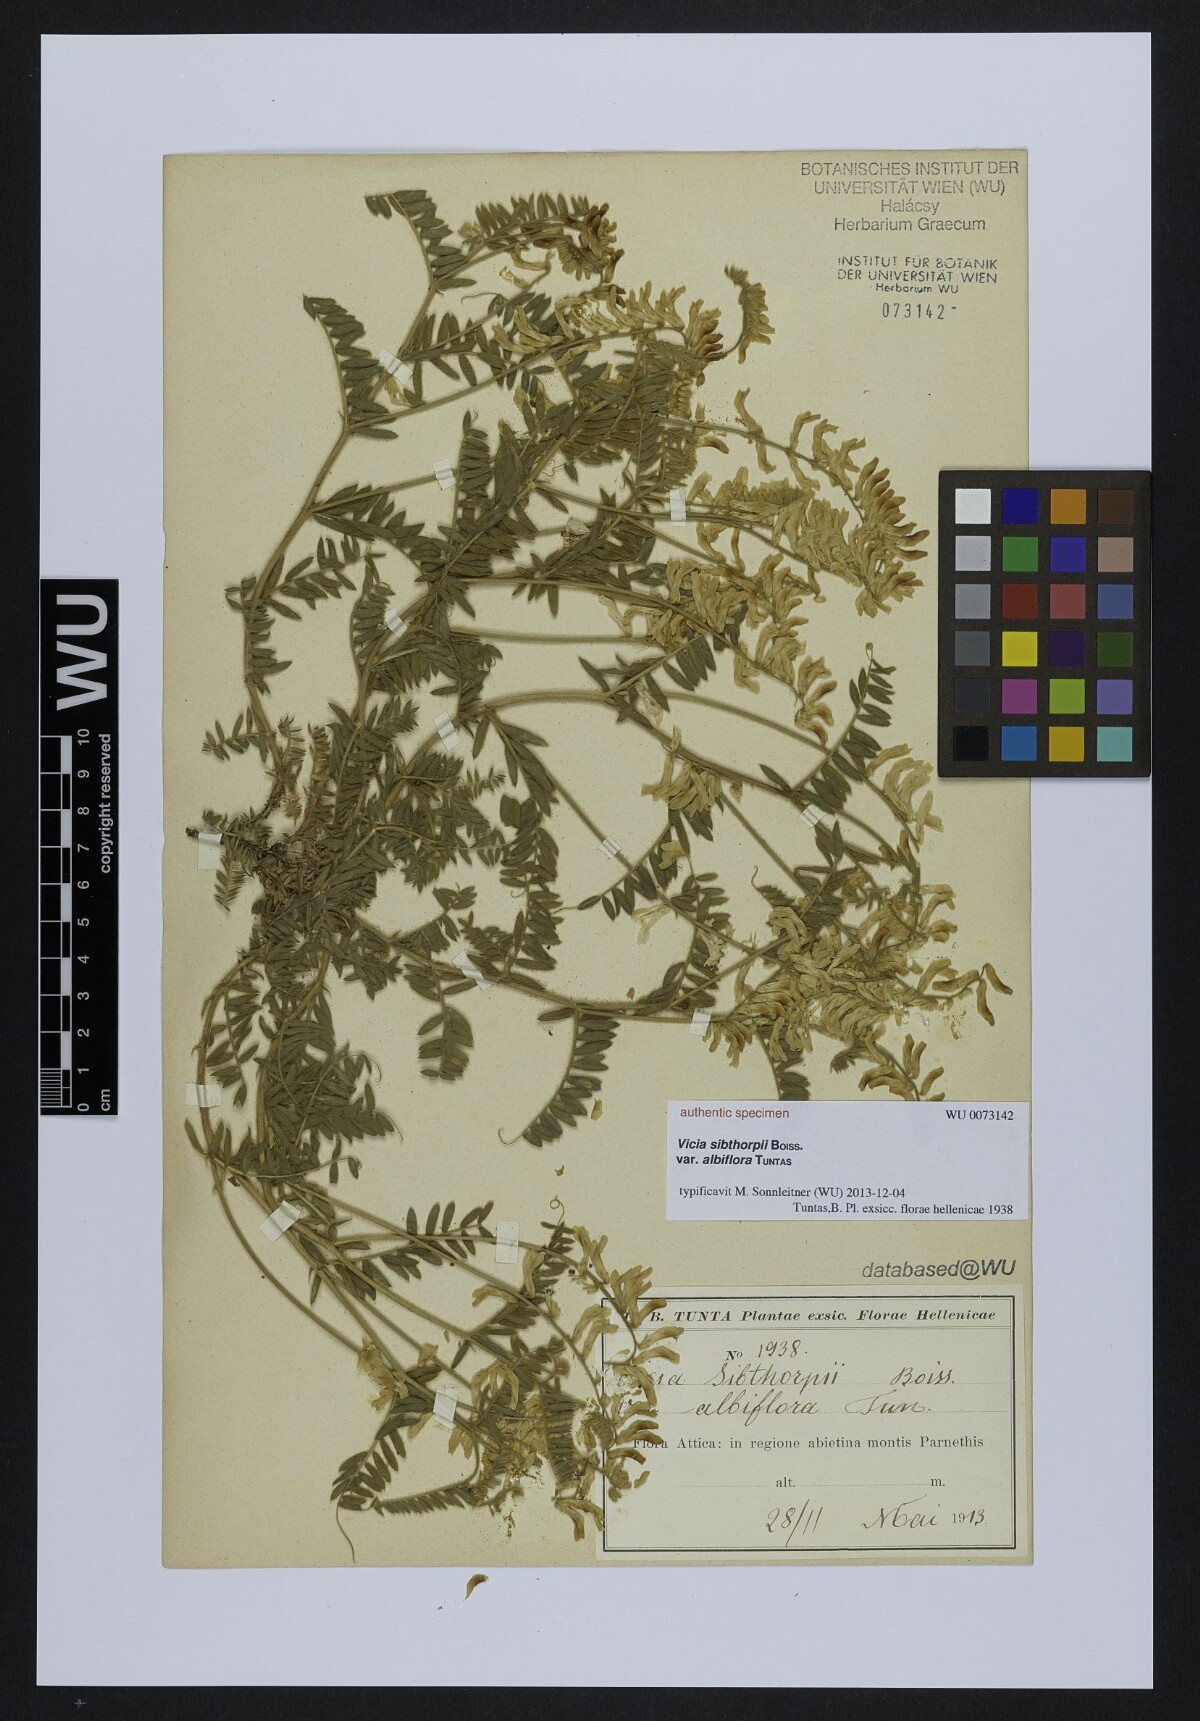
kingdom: Plantae
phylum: Tracheophyta
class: Magnoliopsida
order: Fabales
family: Fabaceae
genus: Vicia
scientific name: Vicia sibthorpii
